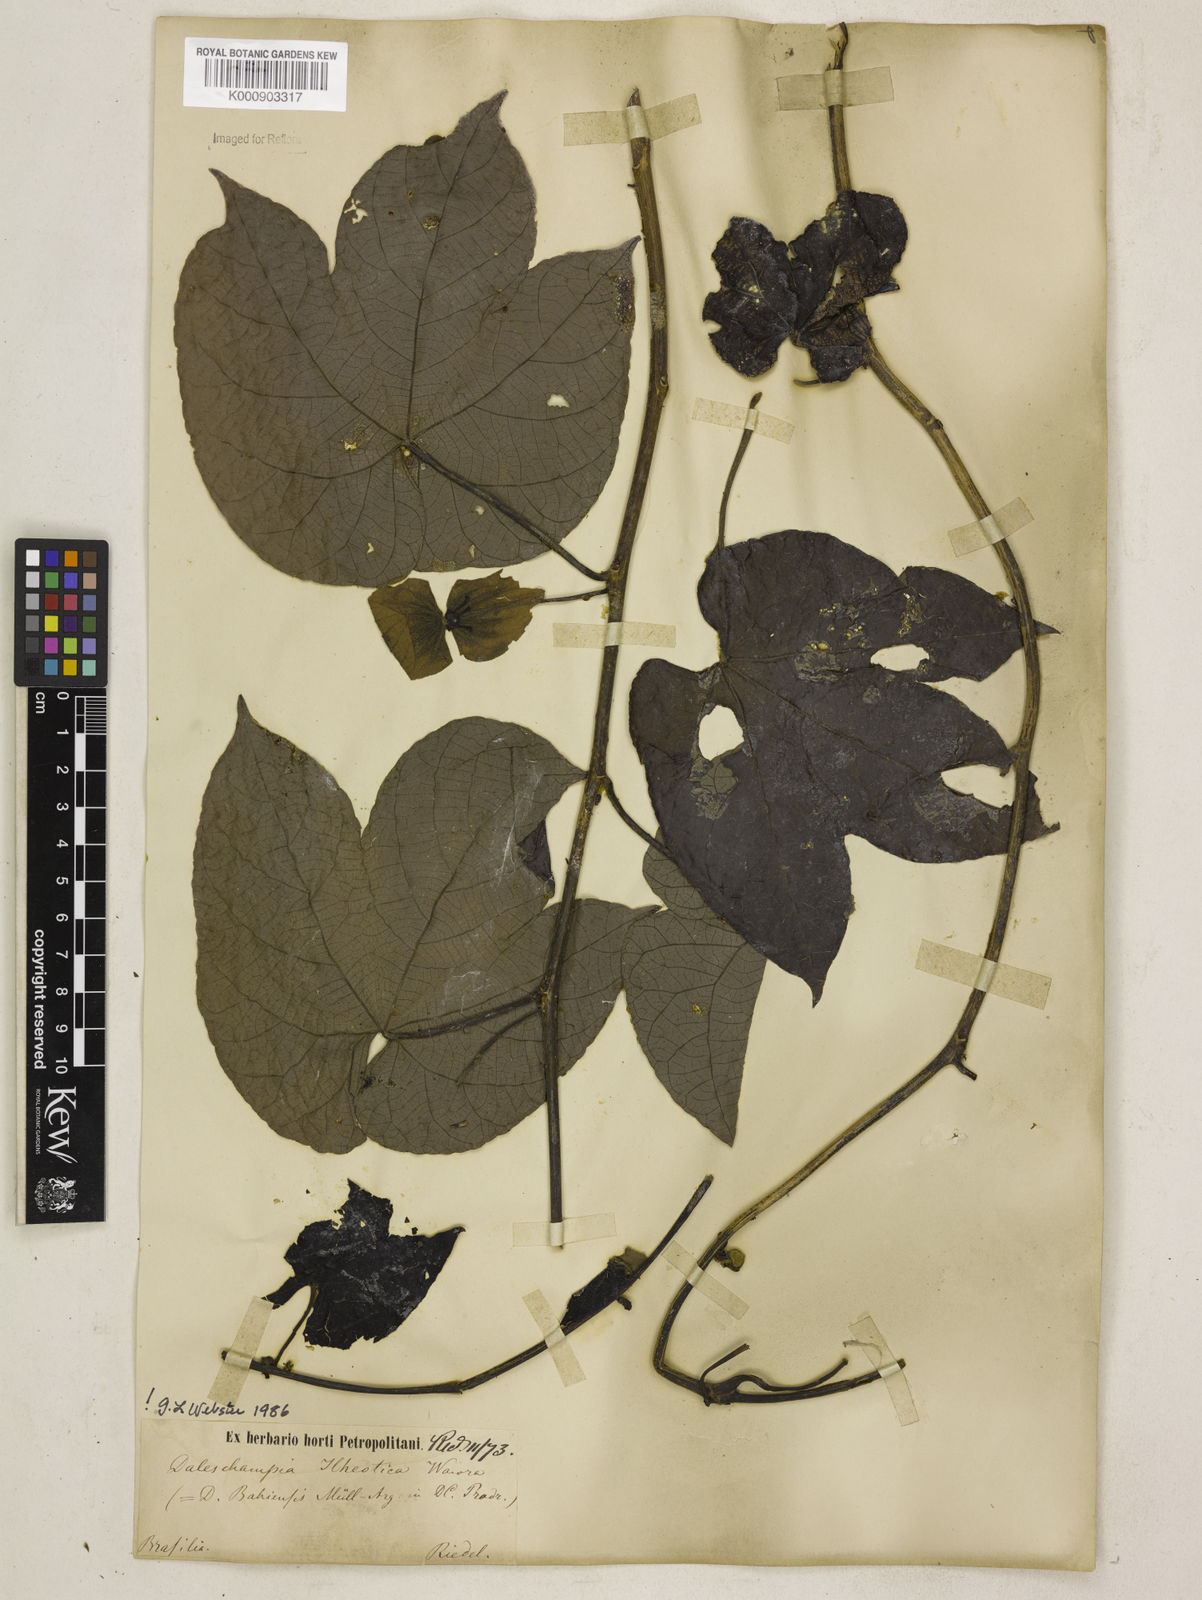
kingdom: Plantae
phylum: Tracheophyta
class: Magnoliopsida
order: Malpighiales
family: Euphorbiaceae
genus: Dalechampia
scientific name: Dalechampia ilheotica
